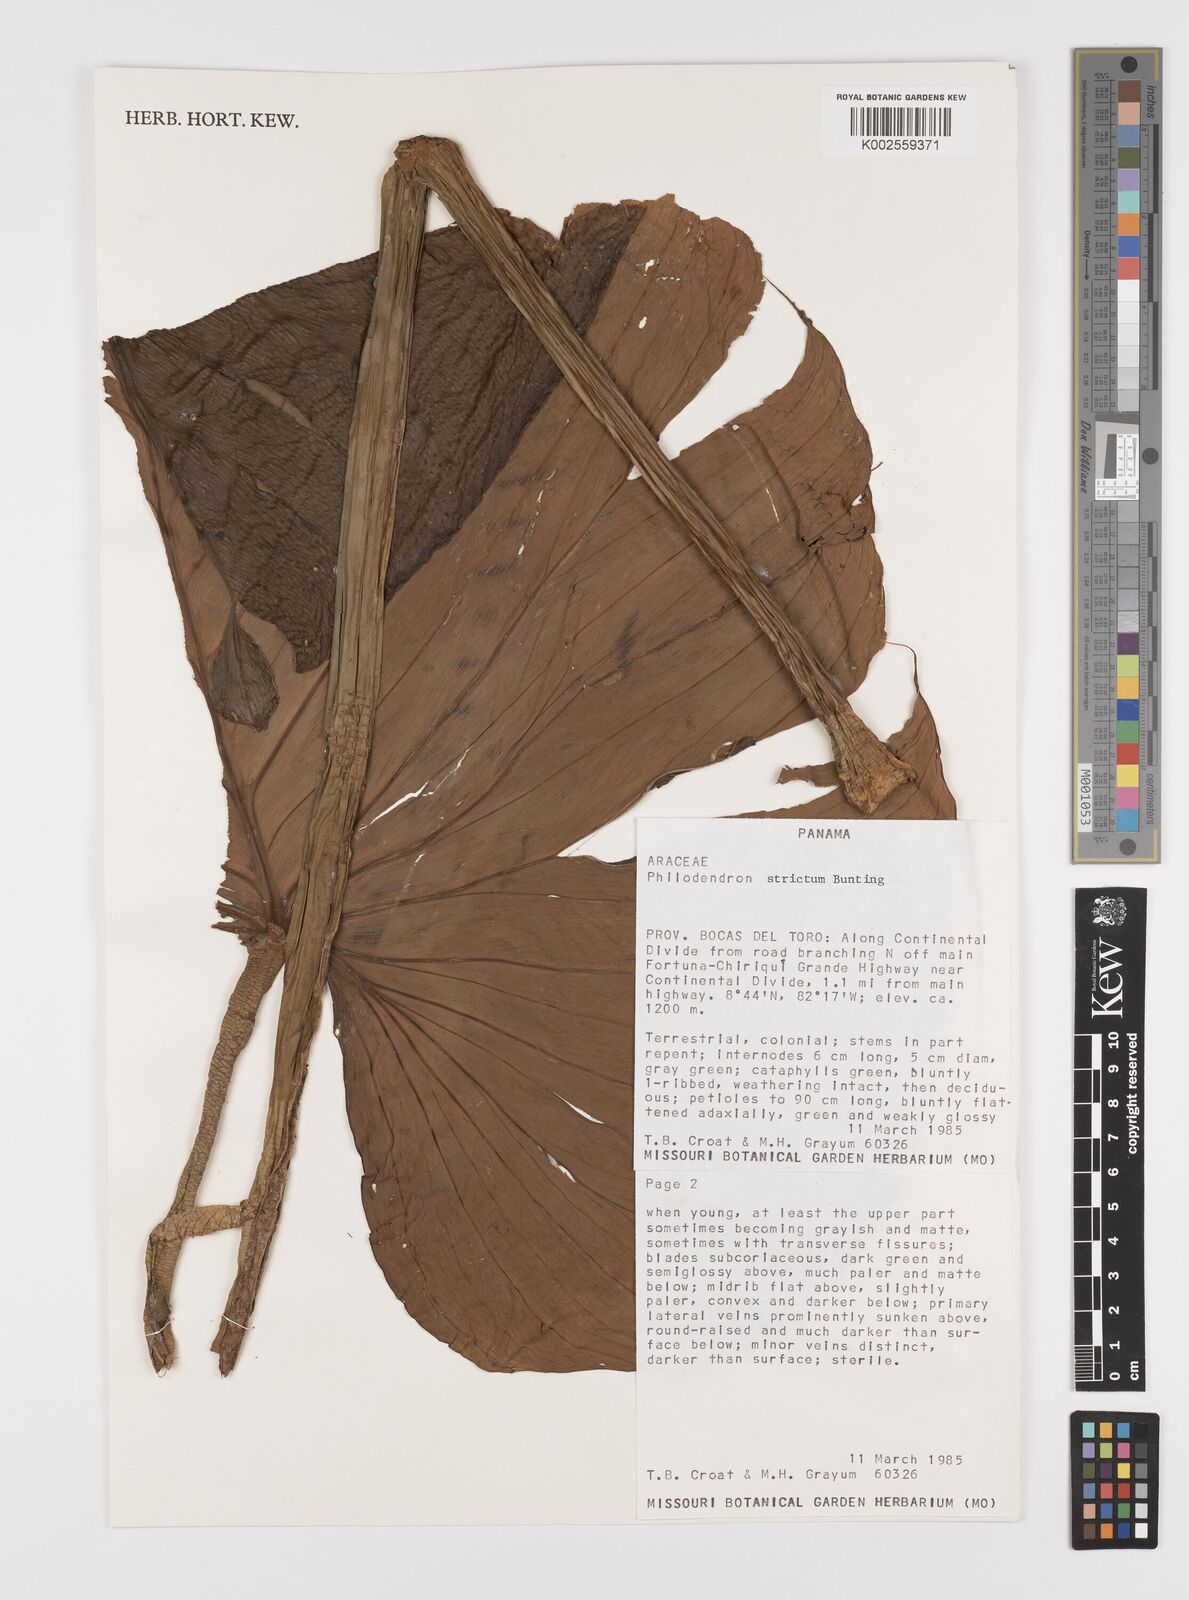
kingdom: Plantae
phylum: Tracheophyta
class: Liliopsida
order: Alismatales
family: Araceae
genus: Philodendron
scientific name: Philodendron strictum
